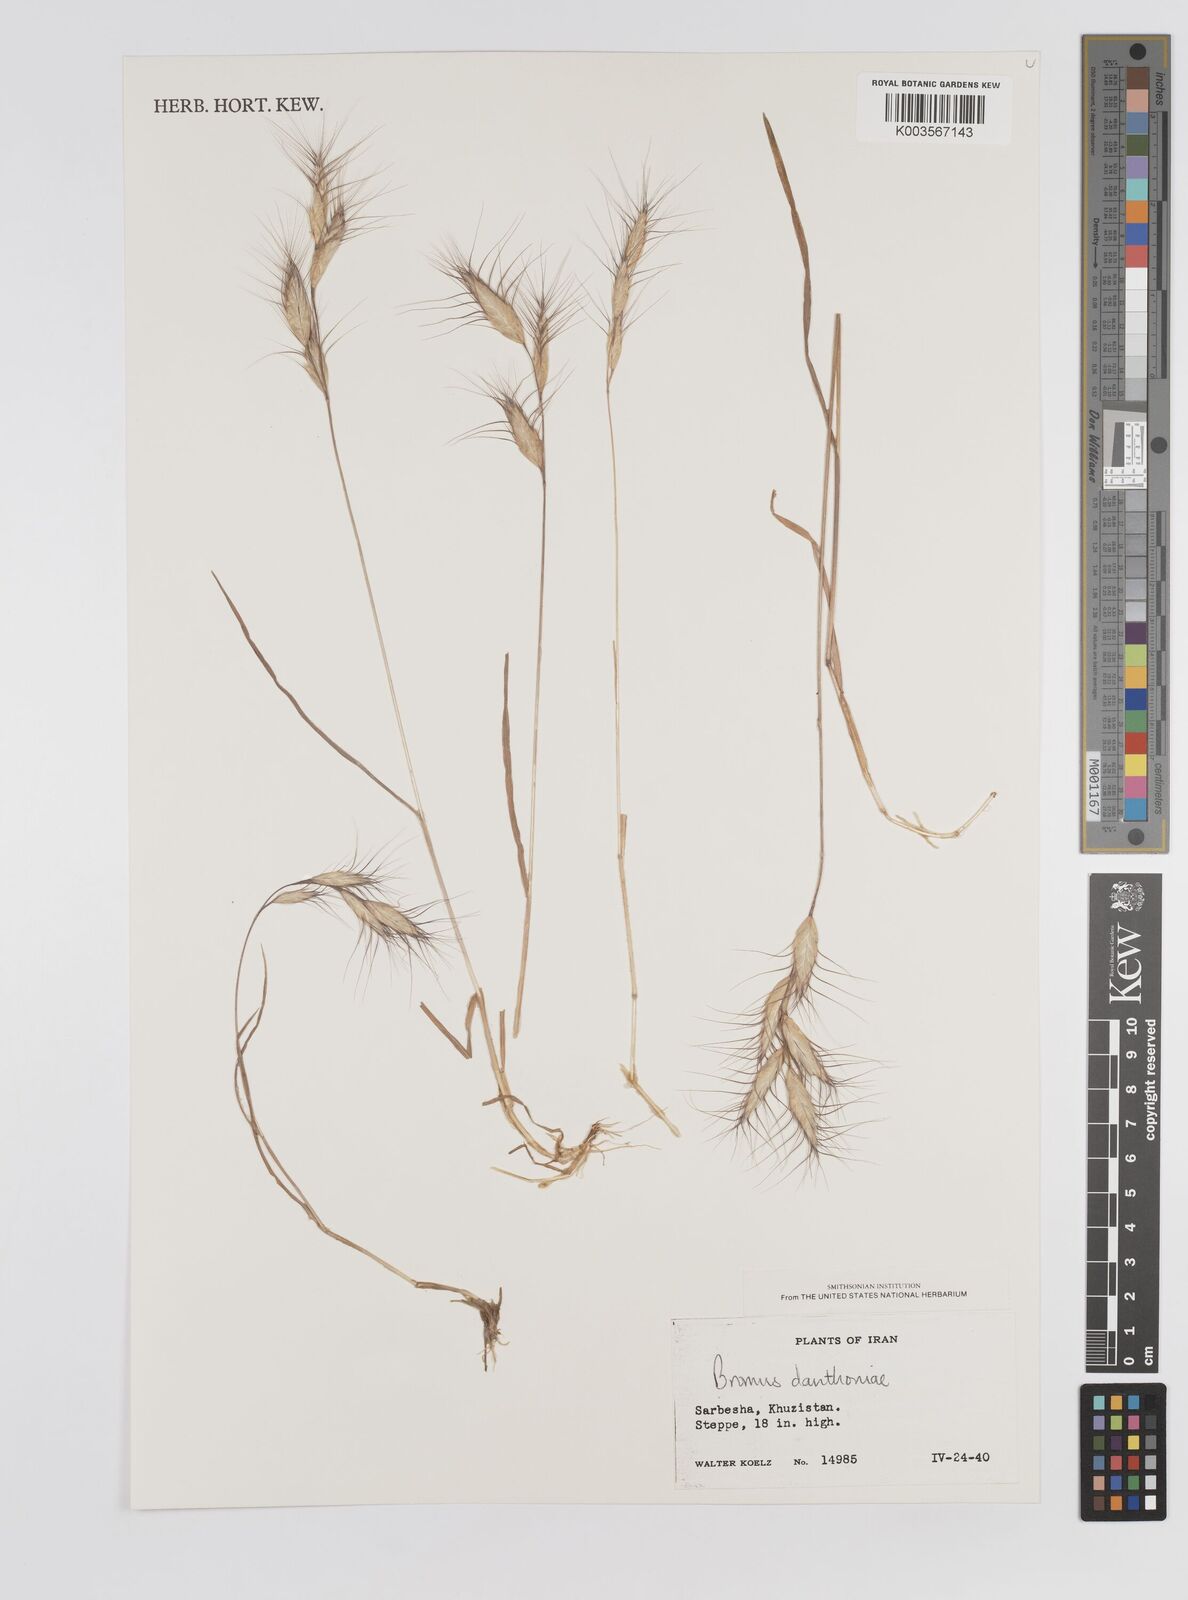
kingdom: Plantae
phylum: Tracheophyta
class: Liliopsida
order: Poales
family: Poaceae
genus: Bromus
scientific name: Bromus danthoniae
